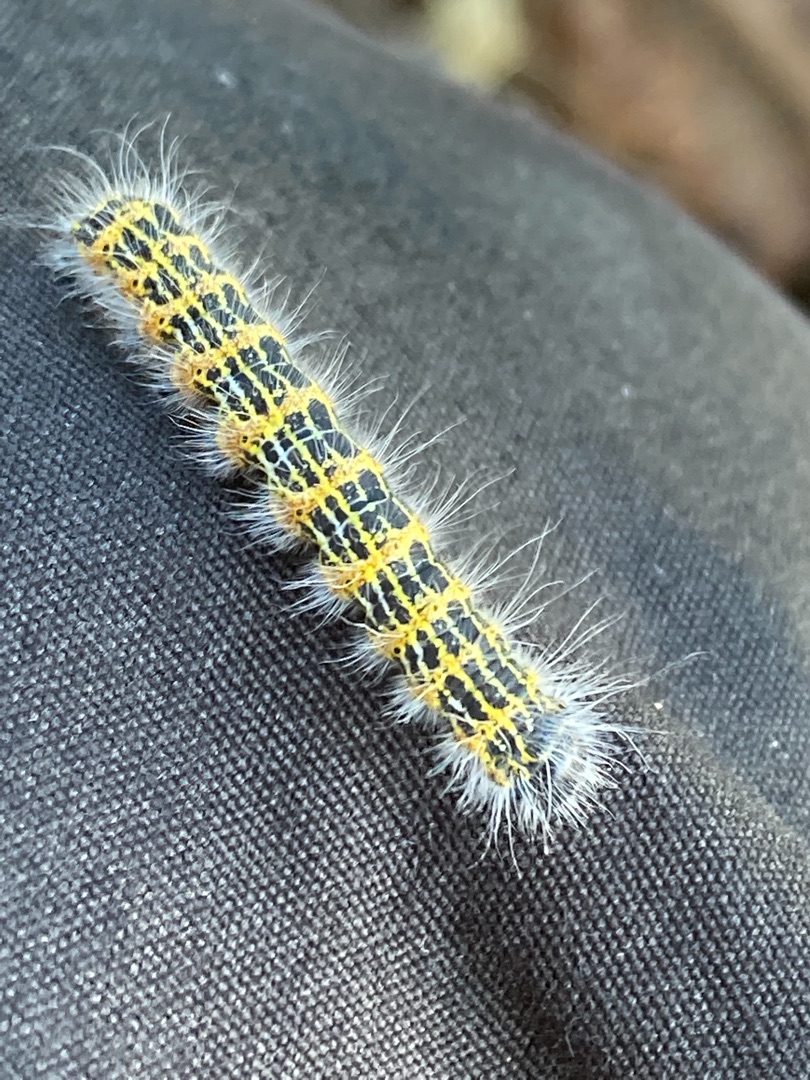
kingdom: Animalia
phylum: Arthropoda
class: Insecta
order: Lepidoptera
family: Notodontidae
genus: Phalera
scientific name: Phalera bucephala
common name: Måneplet
